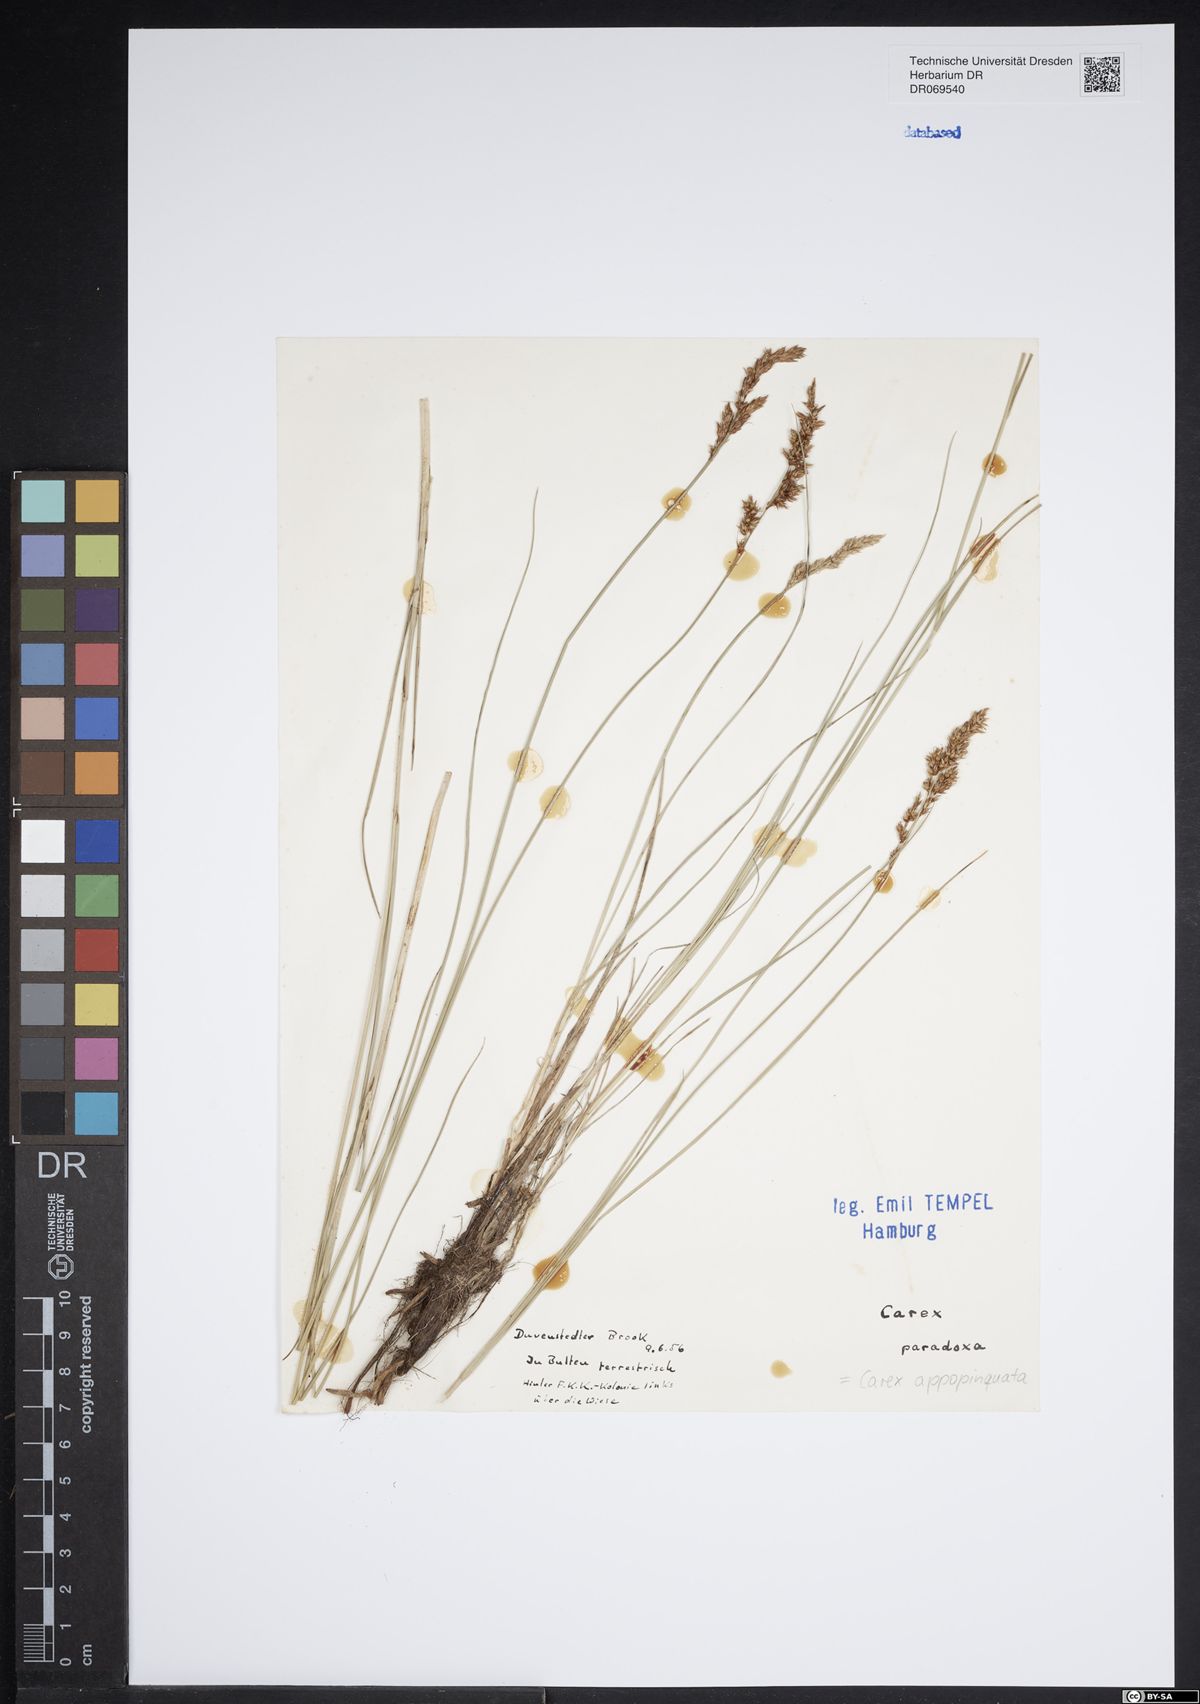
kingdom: Plantae
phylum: Tracheophyta
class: Liliopsida
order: Poales
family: Cyperaceae
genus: Carex
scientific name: Carex appropinquata
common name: Fibrous tussock-sedge
